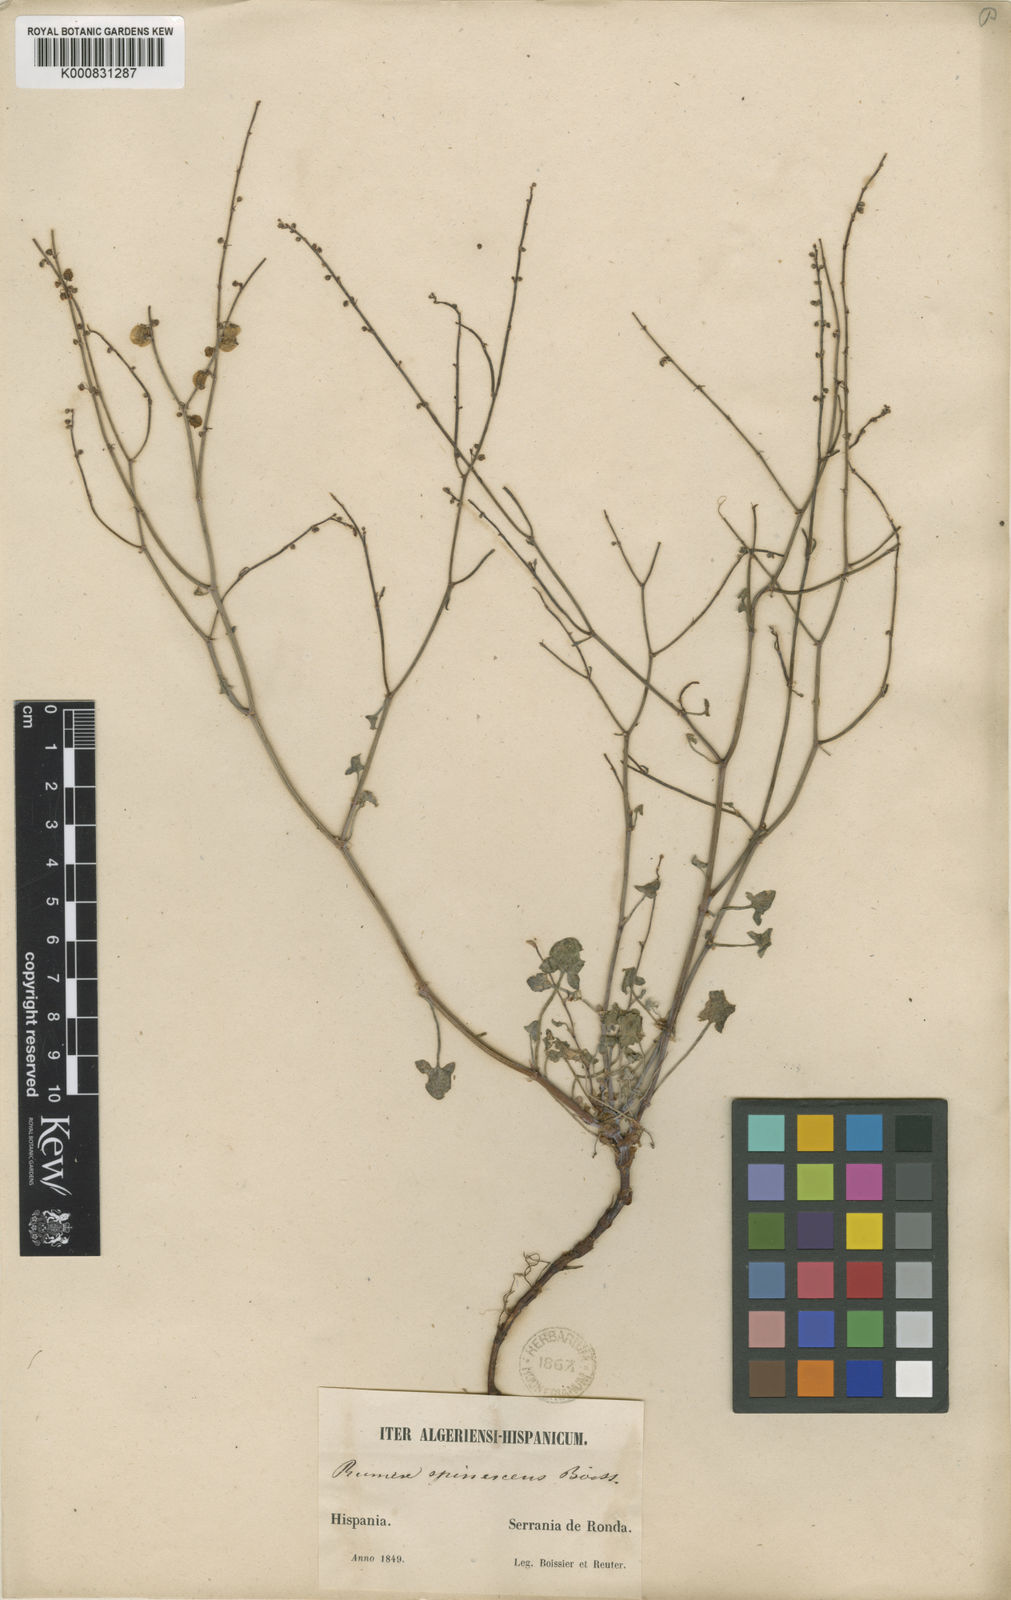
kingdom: Plantae
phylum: Tracheophyta
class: Magnoliopsida
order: Caryophyllales
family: Polygonaceae
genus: Rumex
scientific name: Rumex scutatus
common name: French sorrel
